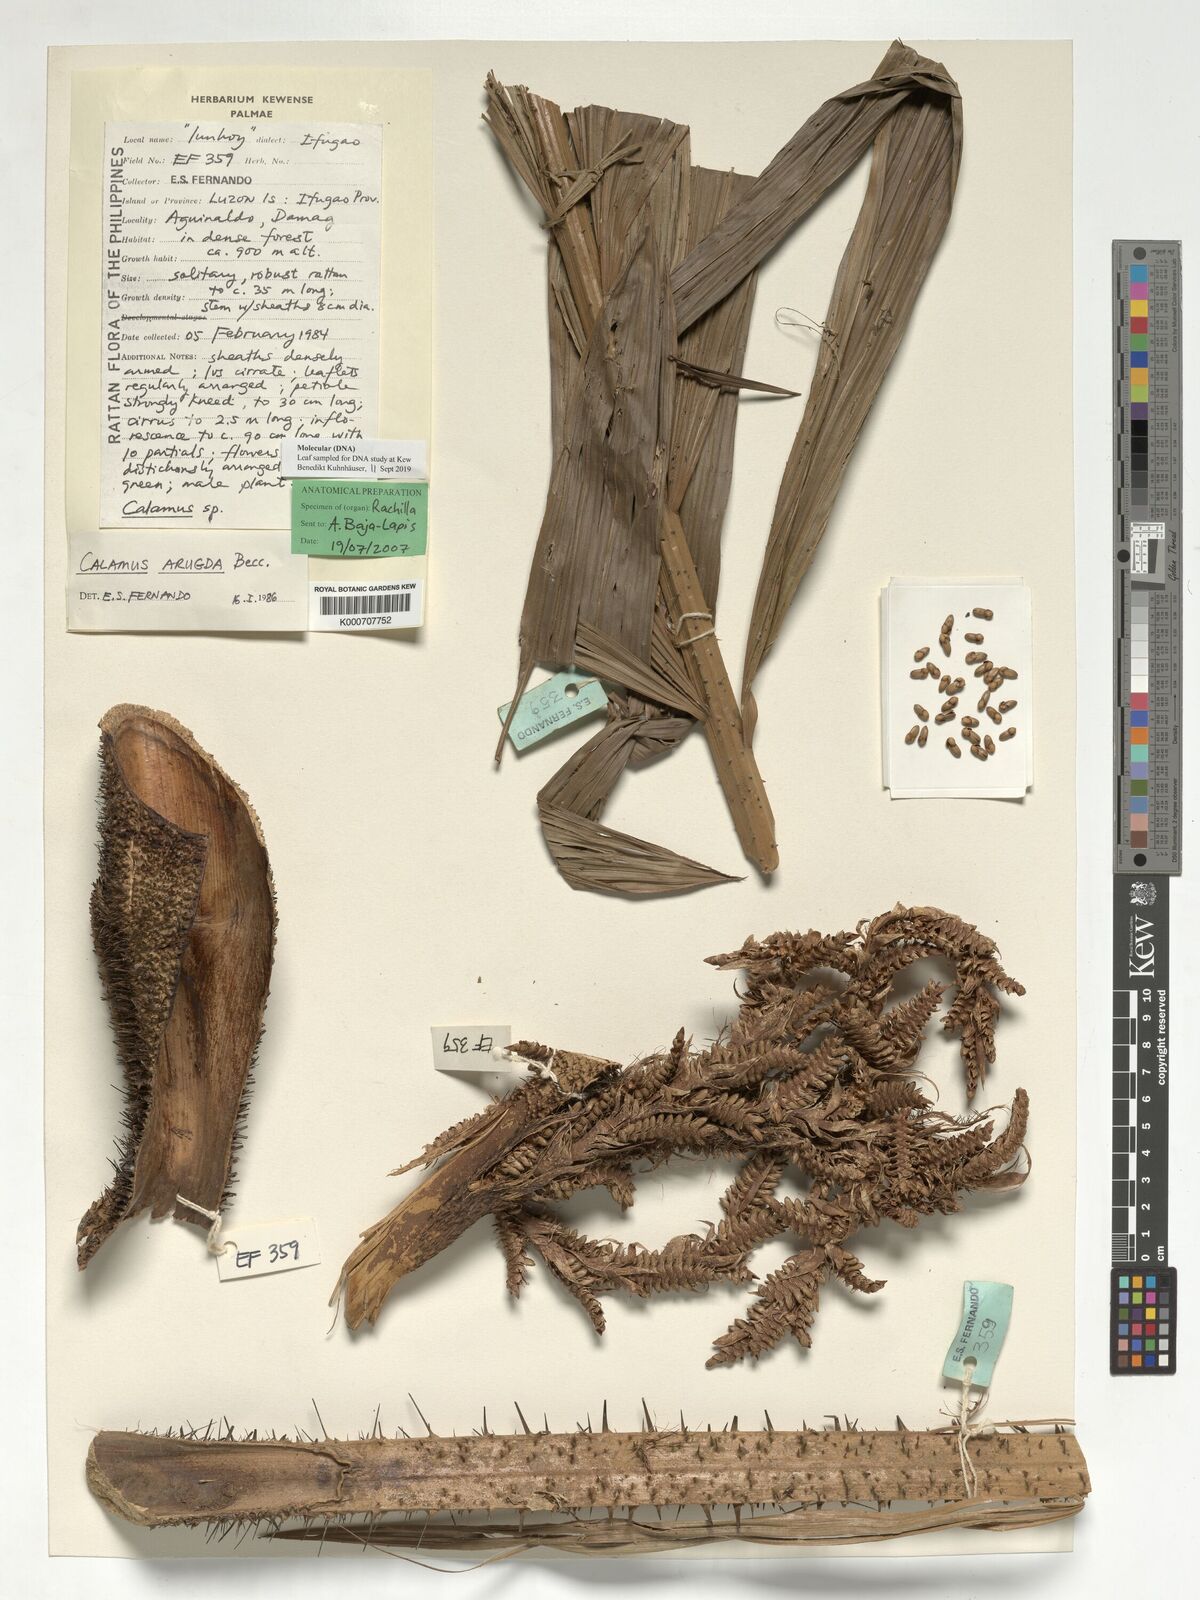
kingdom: Plantae
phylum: Tracheophyta
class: Liliopsida
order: Arecales
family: Arecaceae
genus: Calamus
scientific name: Calamus arugda
